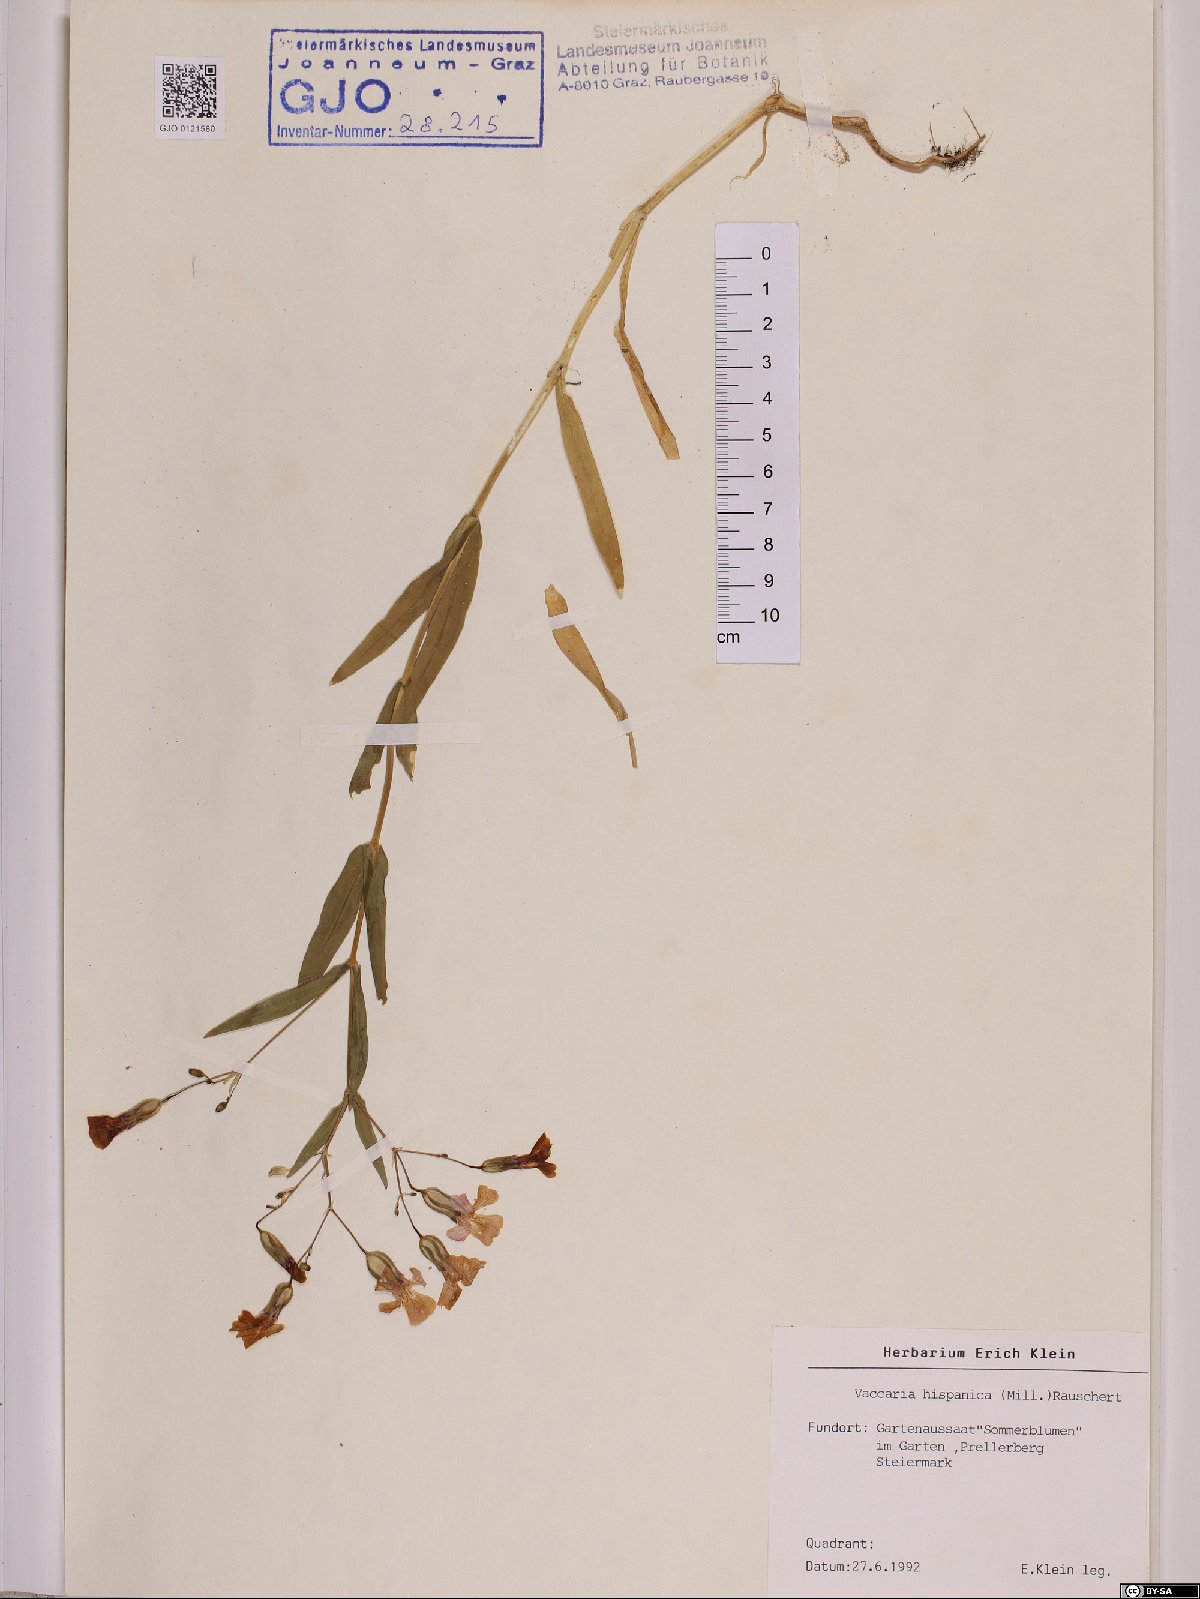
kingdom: Plantae
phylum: Tracheophyta
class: Magnoliopsida
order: Caryophyllales
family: Caryophyllaceae
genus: Gypsophila
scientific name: Gypsophila vaccaria
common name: Cow soapwort
